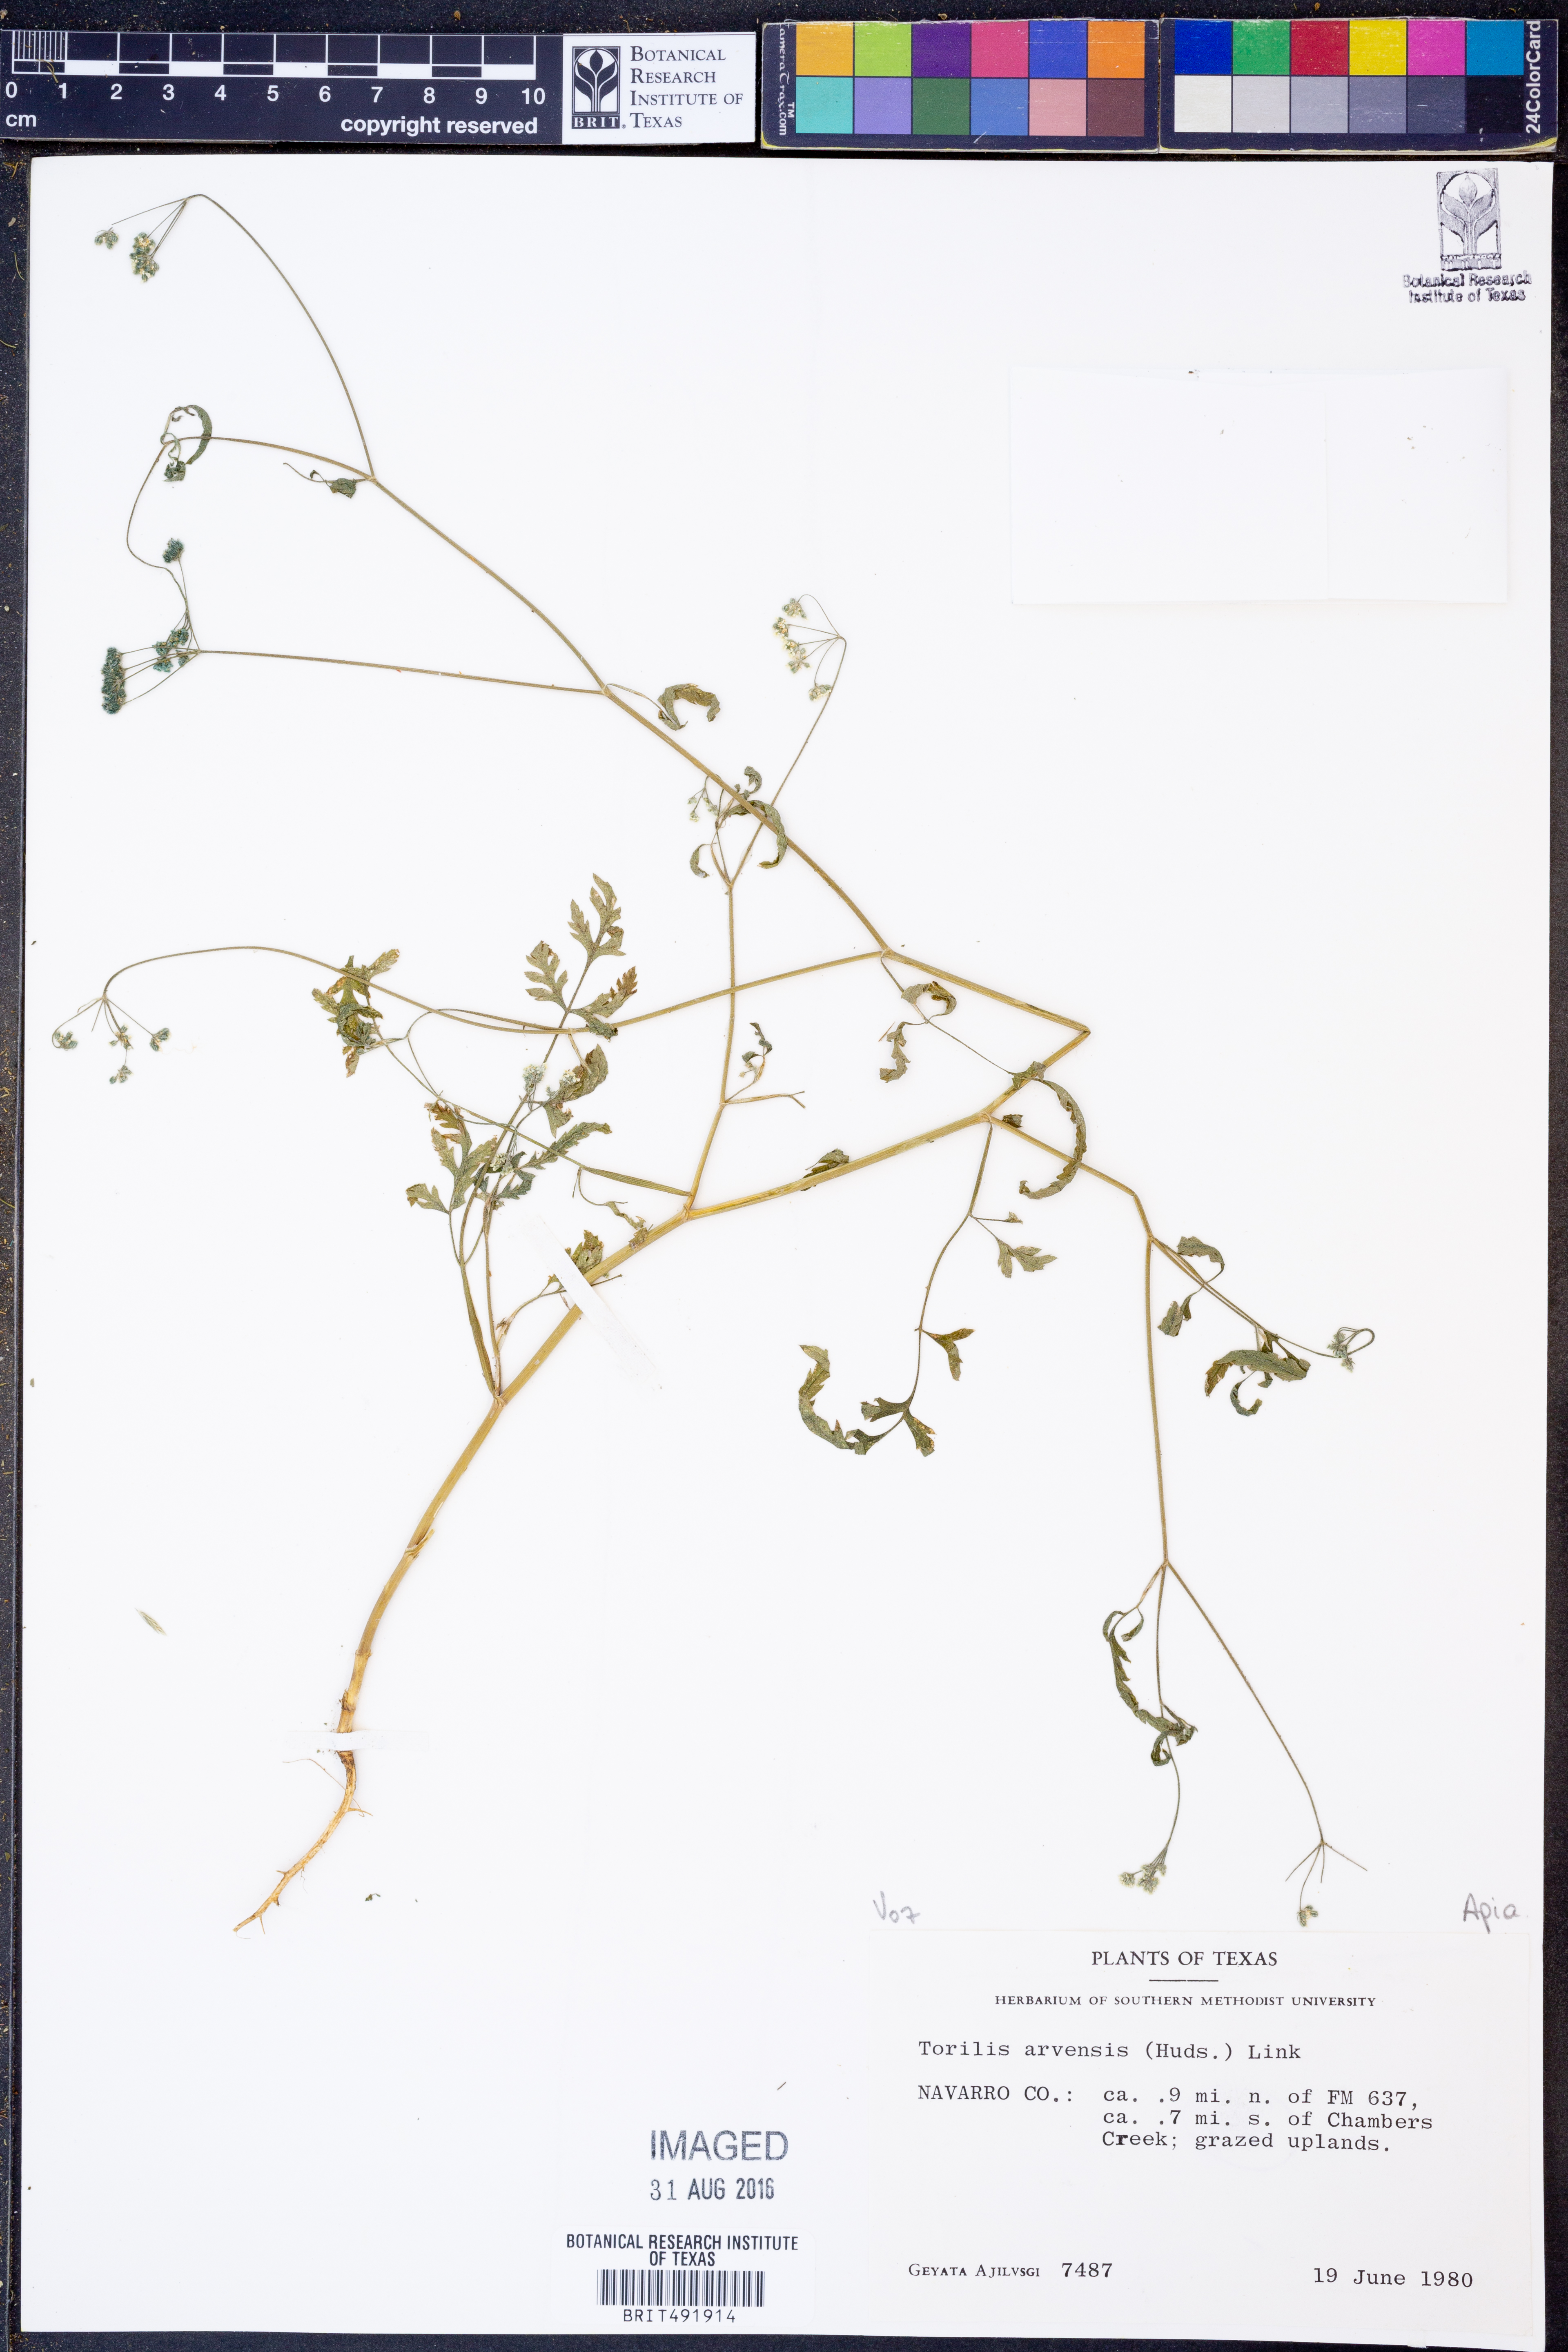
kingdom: Plantae
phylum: Tracheophyta
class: Magnoliopsida
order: Apiales
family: Apiaceae
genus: Torilis
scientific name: Torilis arvensis
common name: Spreading hedge-parsley
